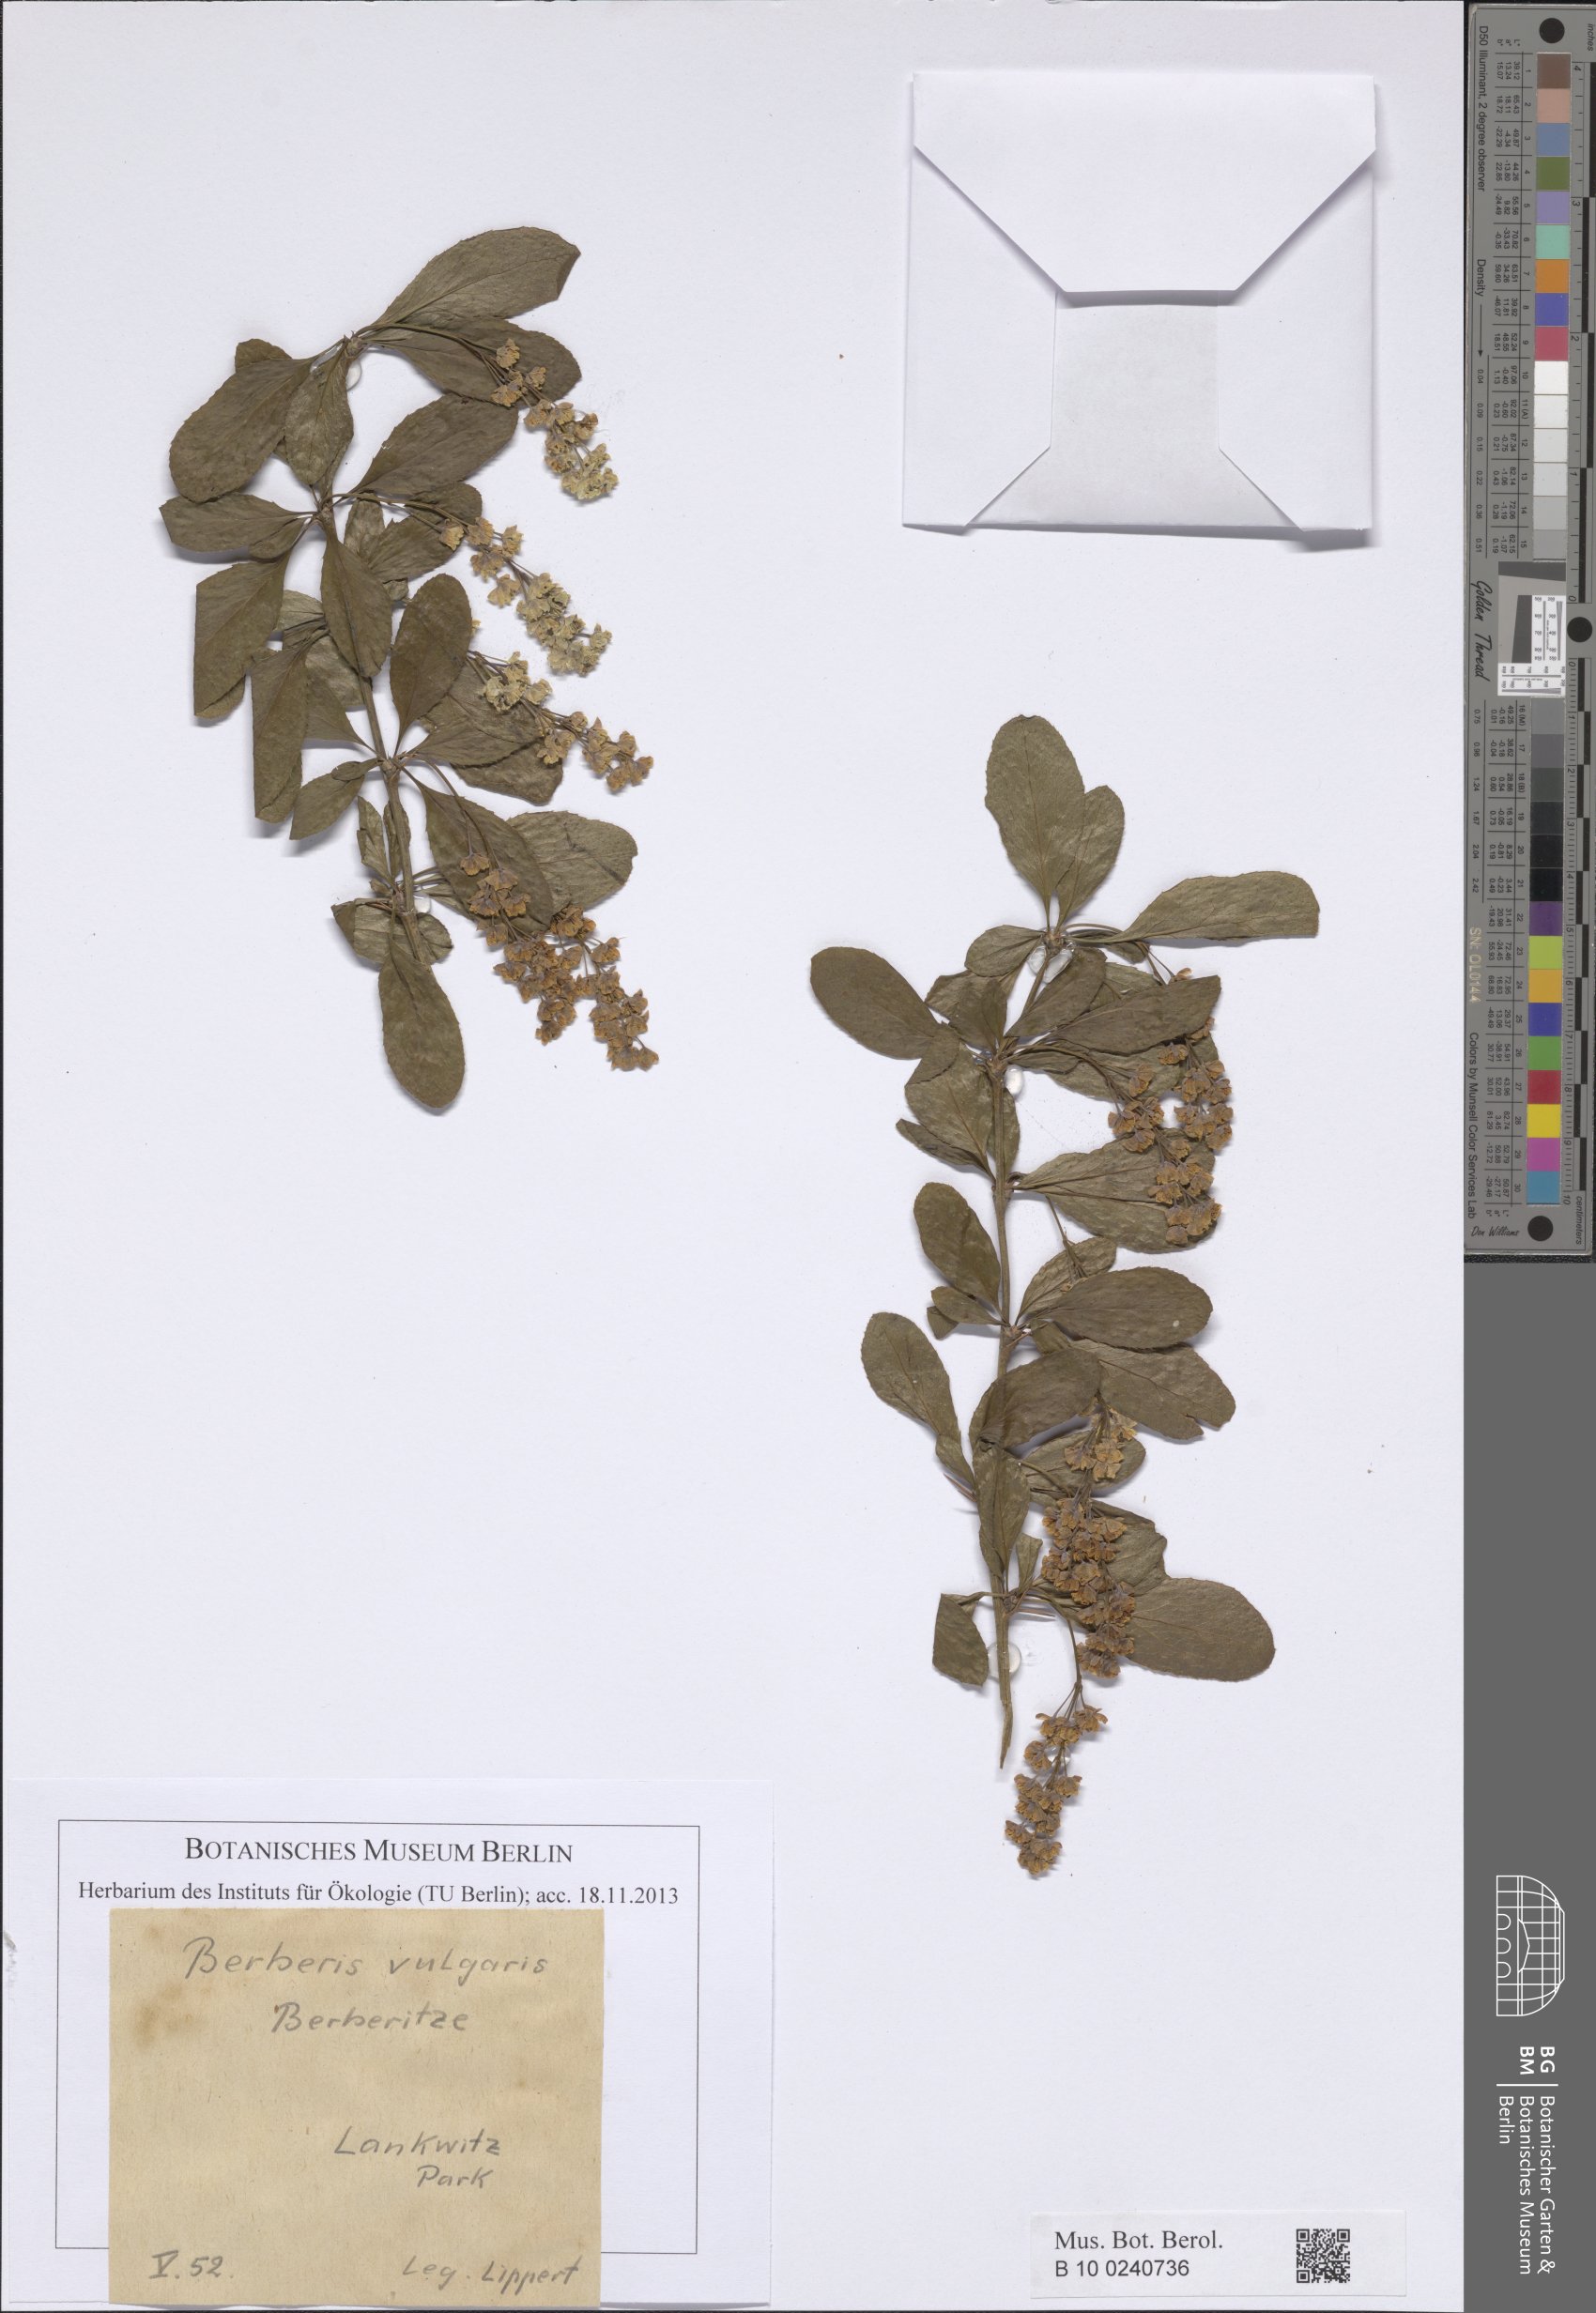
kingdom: Plantae
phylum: Tracheophyta
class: Magnoliopsida
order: Asterales
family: Asteraceae
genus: Helichrysum
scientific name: Helichrysum asperum
